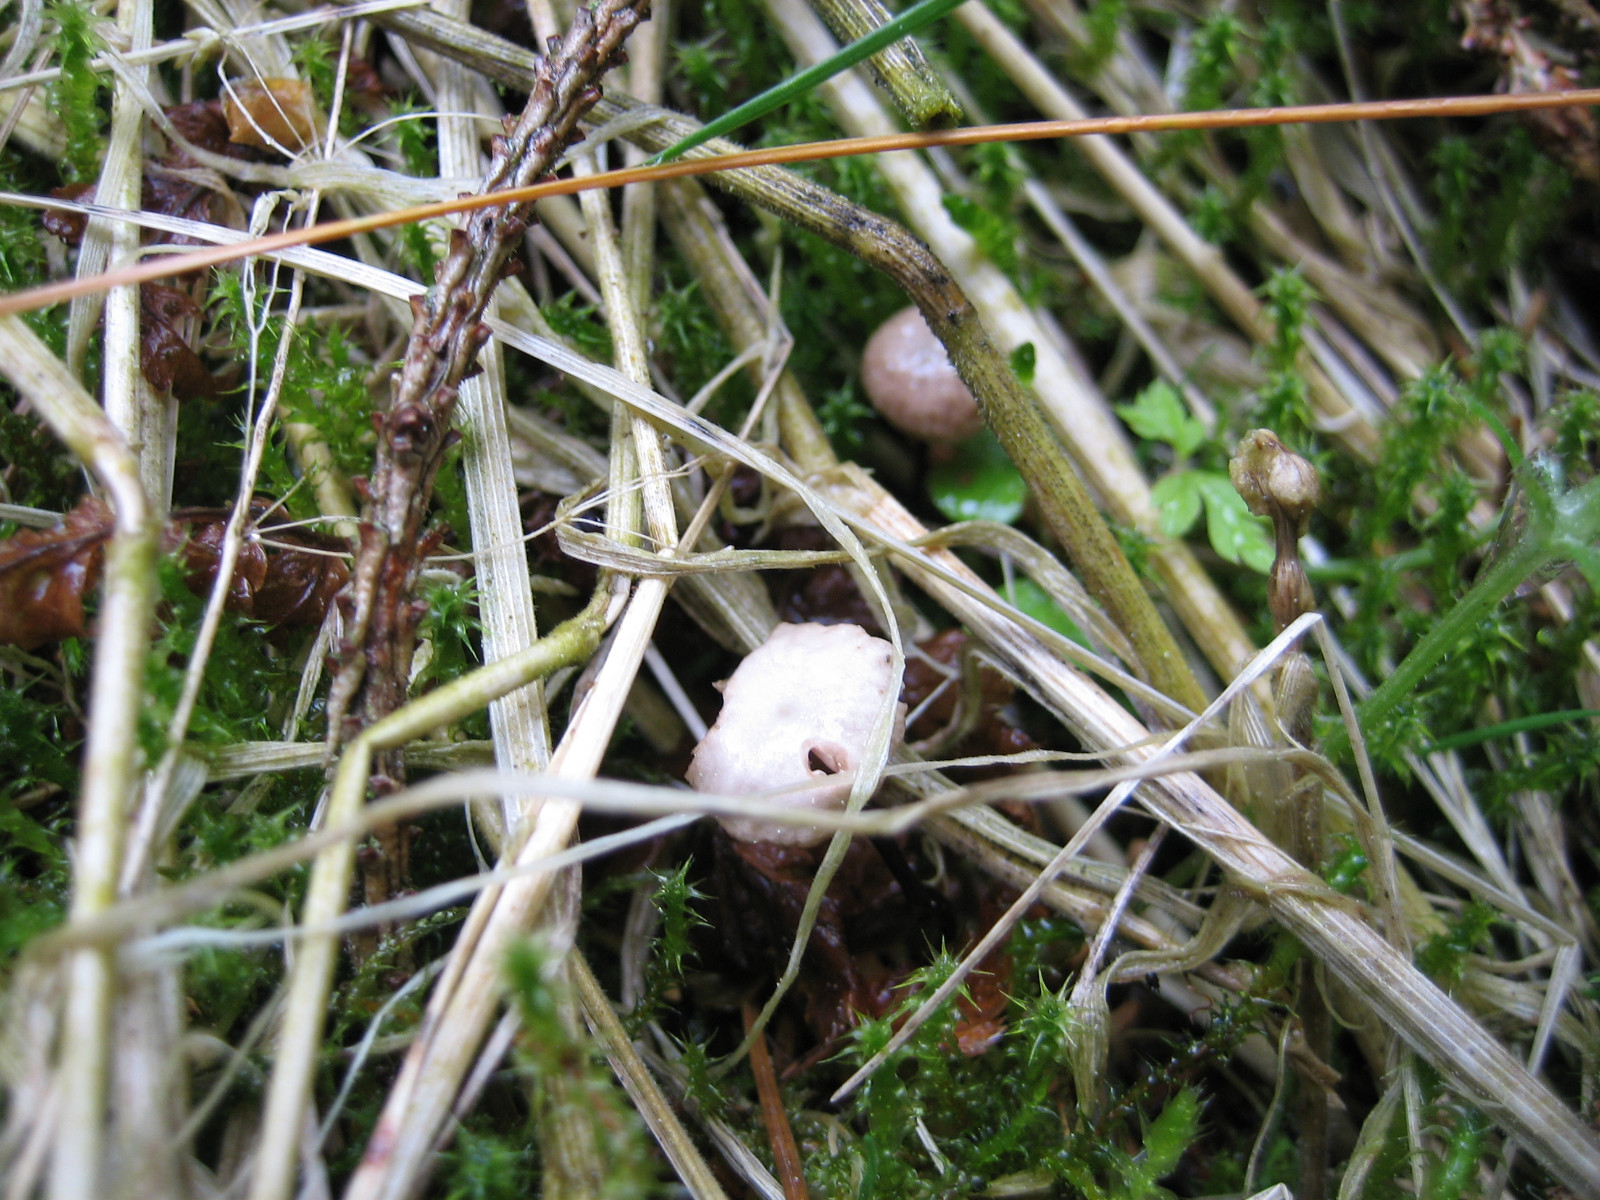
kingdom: Fungi
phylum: Basidiomycota
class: Agaricomycetes
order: Agaricales
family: Omphalotaceae
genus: Paragymnopus
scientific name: Paragymnopus perforans
